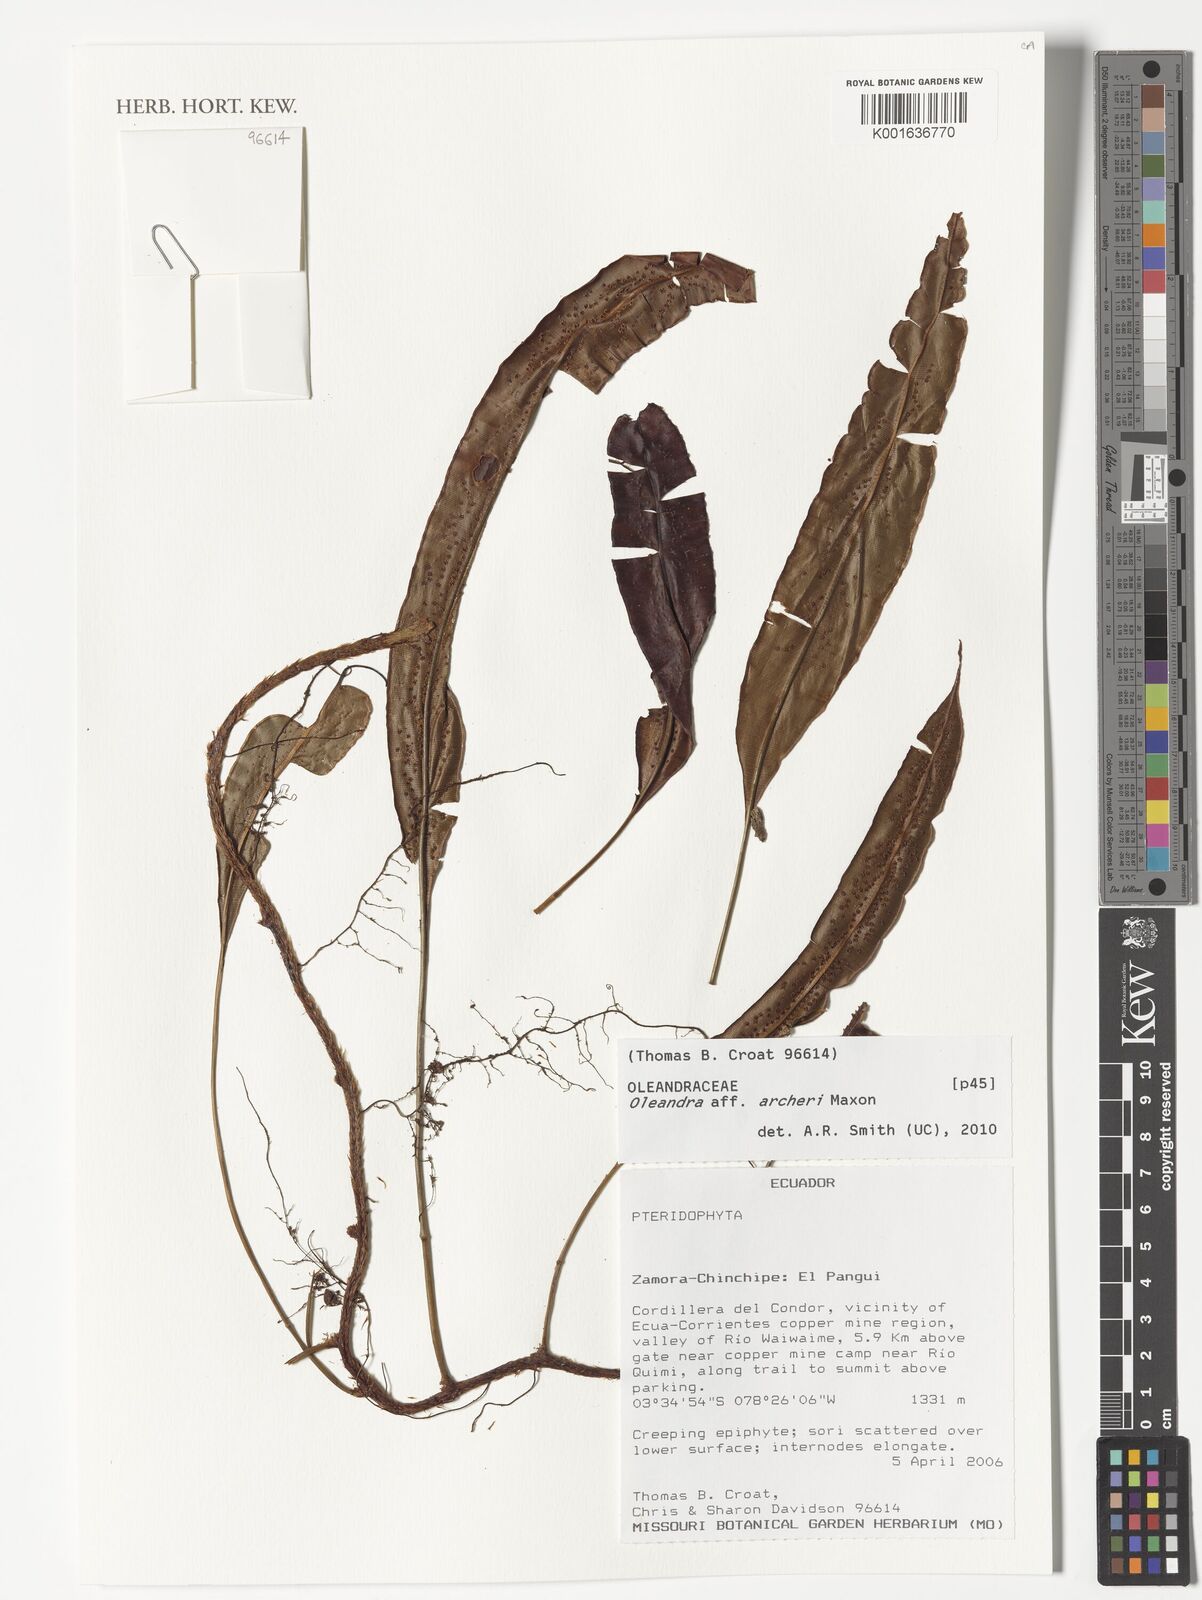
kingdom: Plantae
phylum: Tracheophyta
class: Polypodiopsida
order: Polypodiales
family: Oleandraceae
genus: Oleandra
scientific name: Oleandra lehmannii
